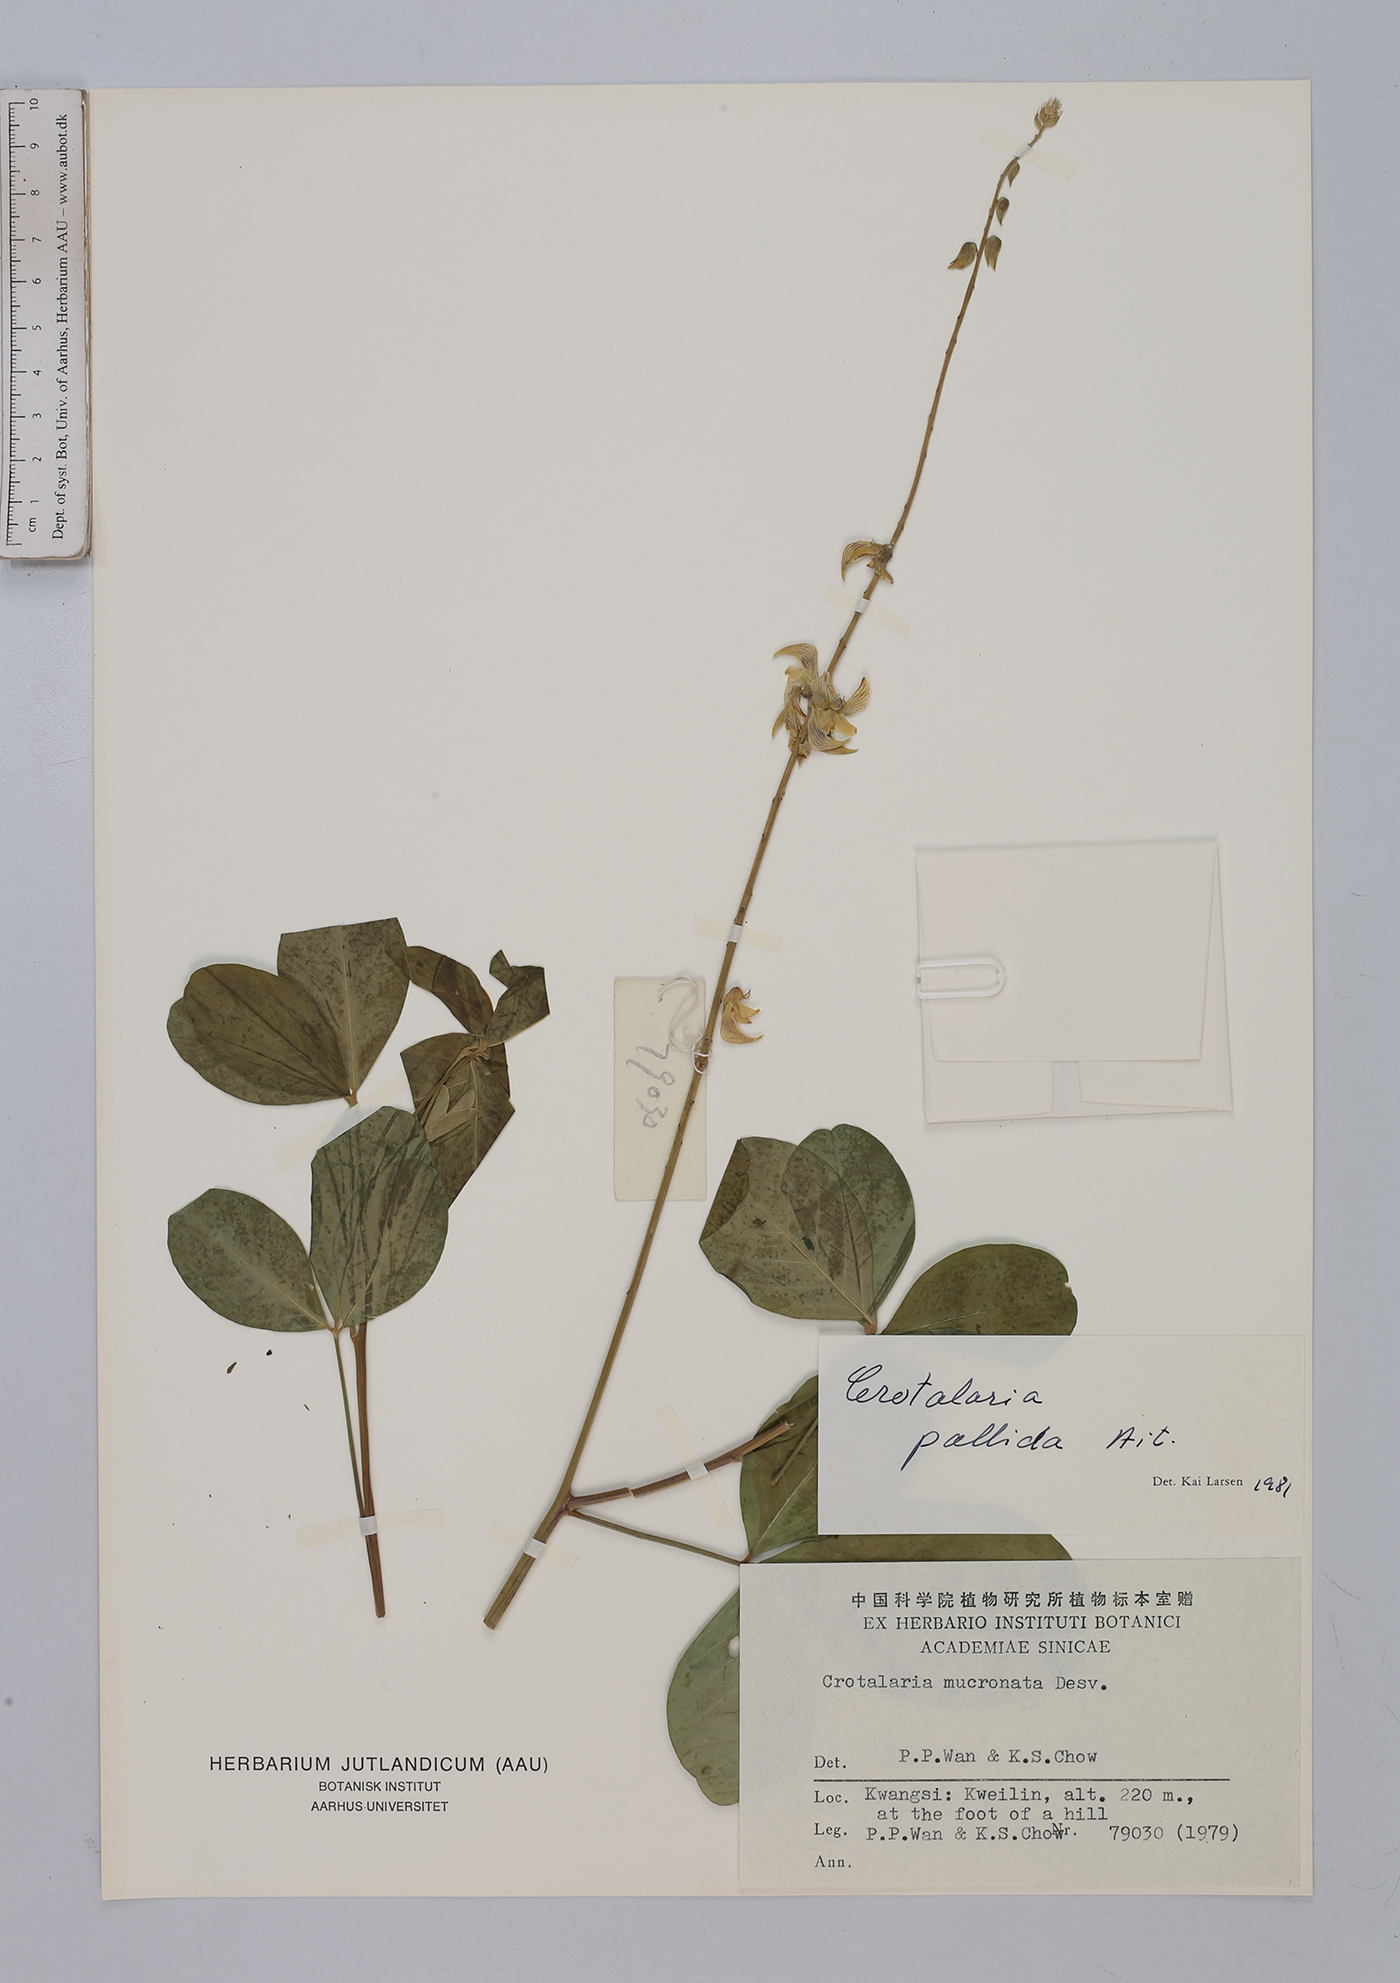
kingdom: Plantae
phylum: Tracheophyta
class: Magnoliopsida
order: Fabales
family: Fabaceae
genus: Crotalaria
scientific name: Crotalaria pallida
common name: Smooth rattlebox
